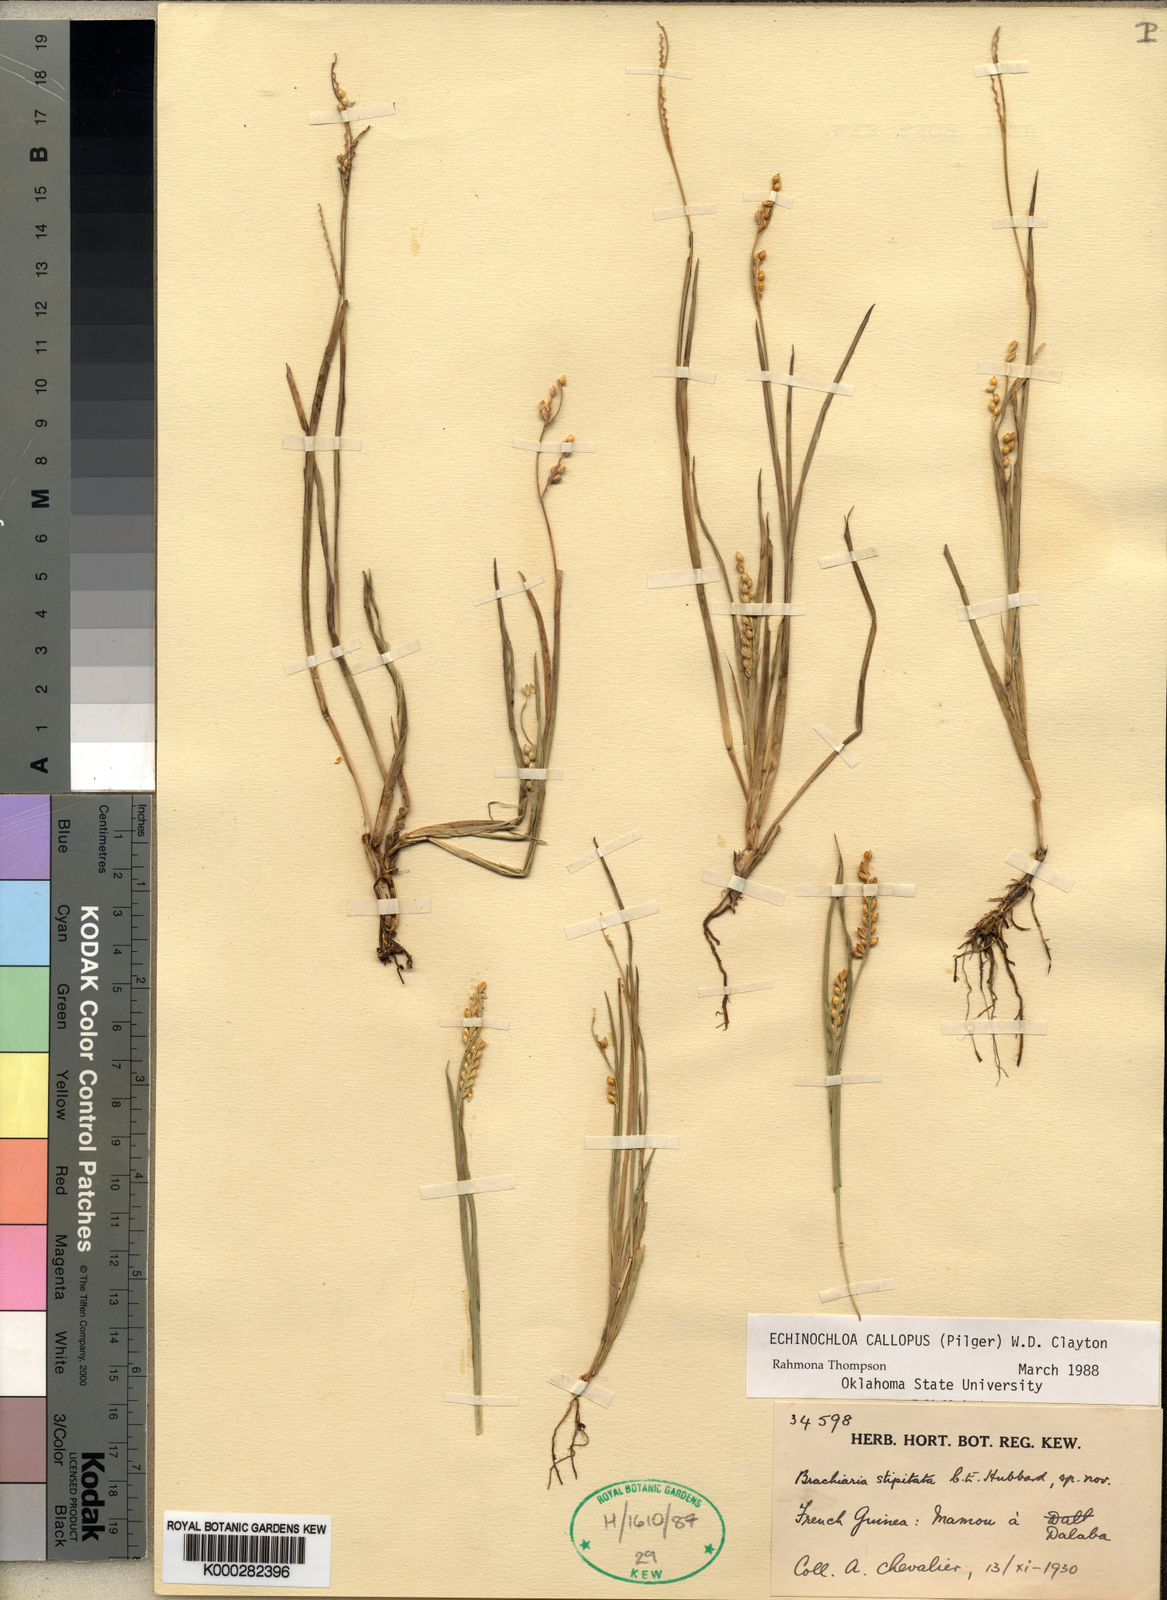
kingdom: Plantae
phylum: Tracheophyta
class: Liliopsida
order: Poales
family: Poaceae
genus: Echinochloa
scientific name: Echinochloa callopus
